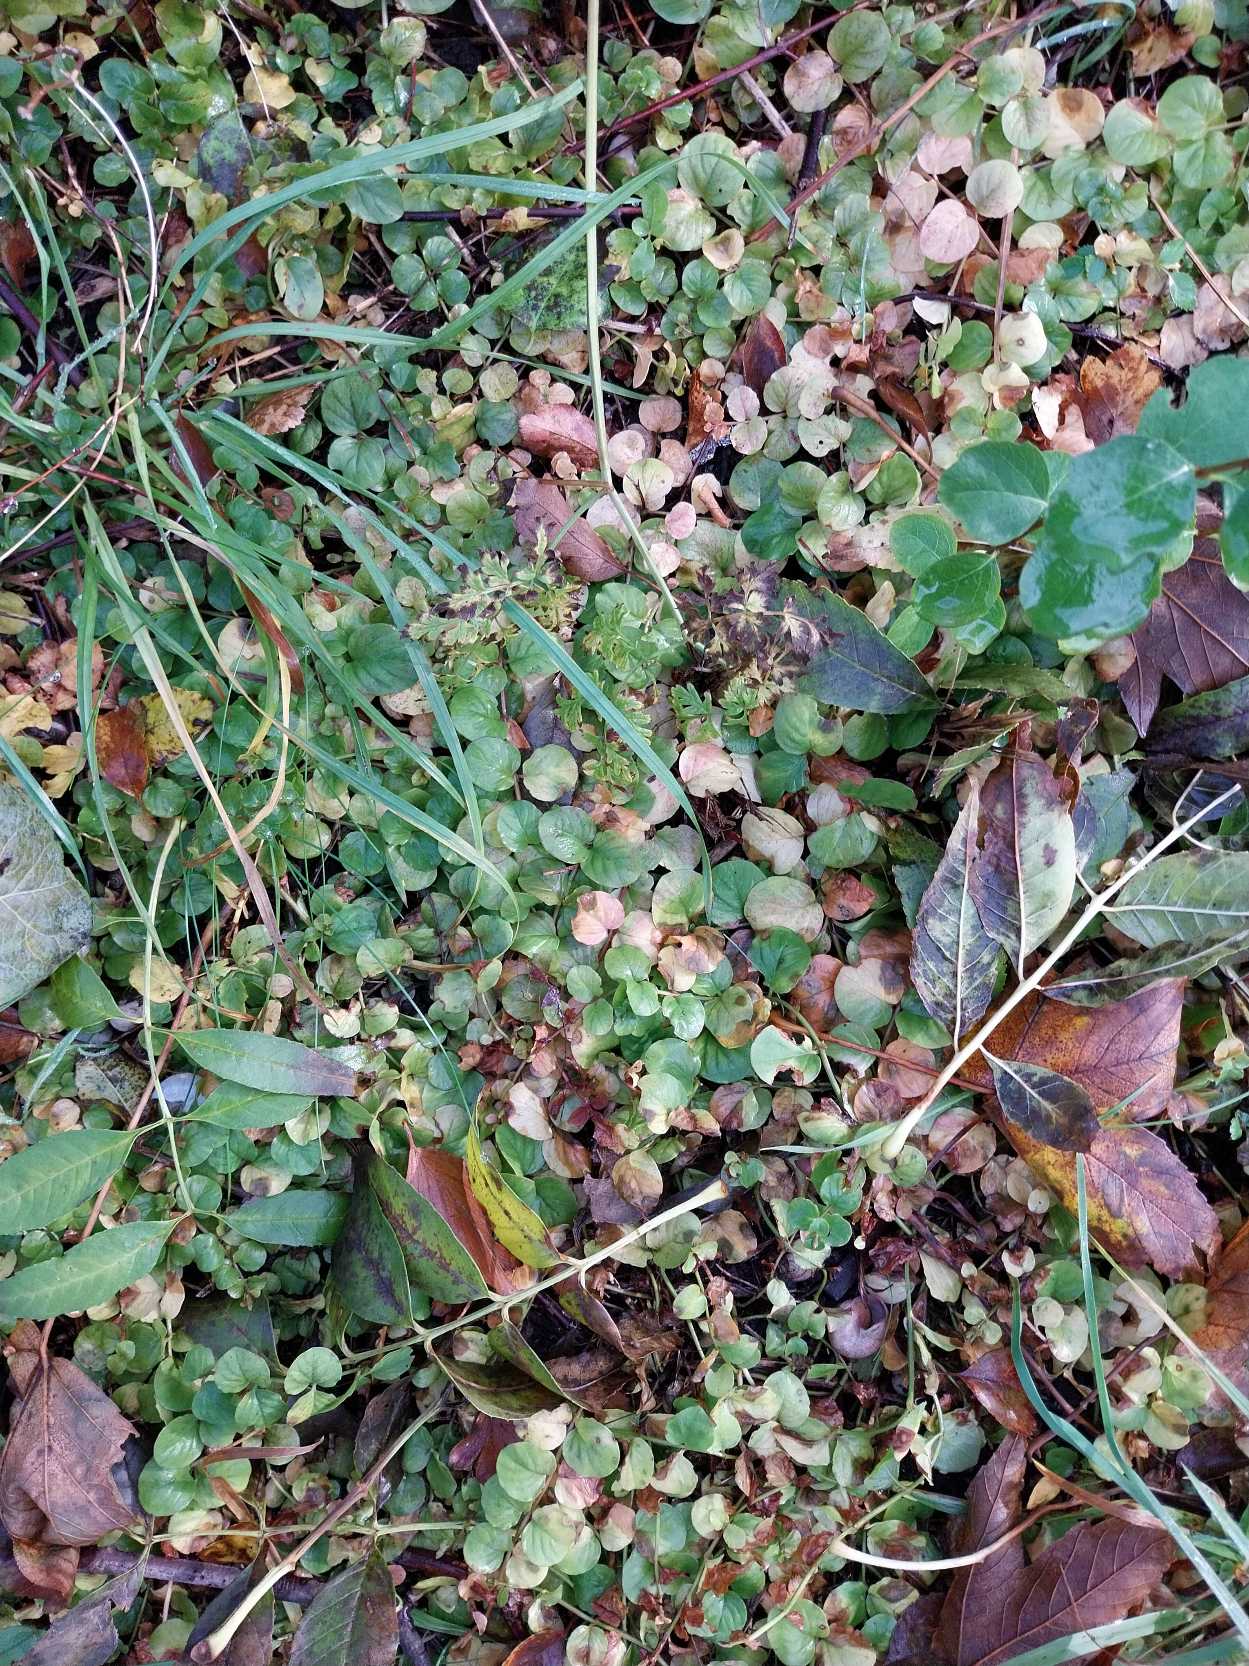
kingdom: Plantae
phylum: Tracheophyta
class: Magnoliopsida
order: Ericales
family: Primulaceae
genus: Lysimachia
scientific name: Lysimachia nummularia
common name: Pengebladet fredløs
